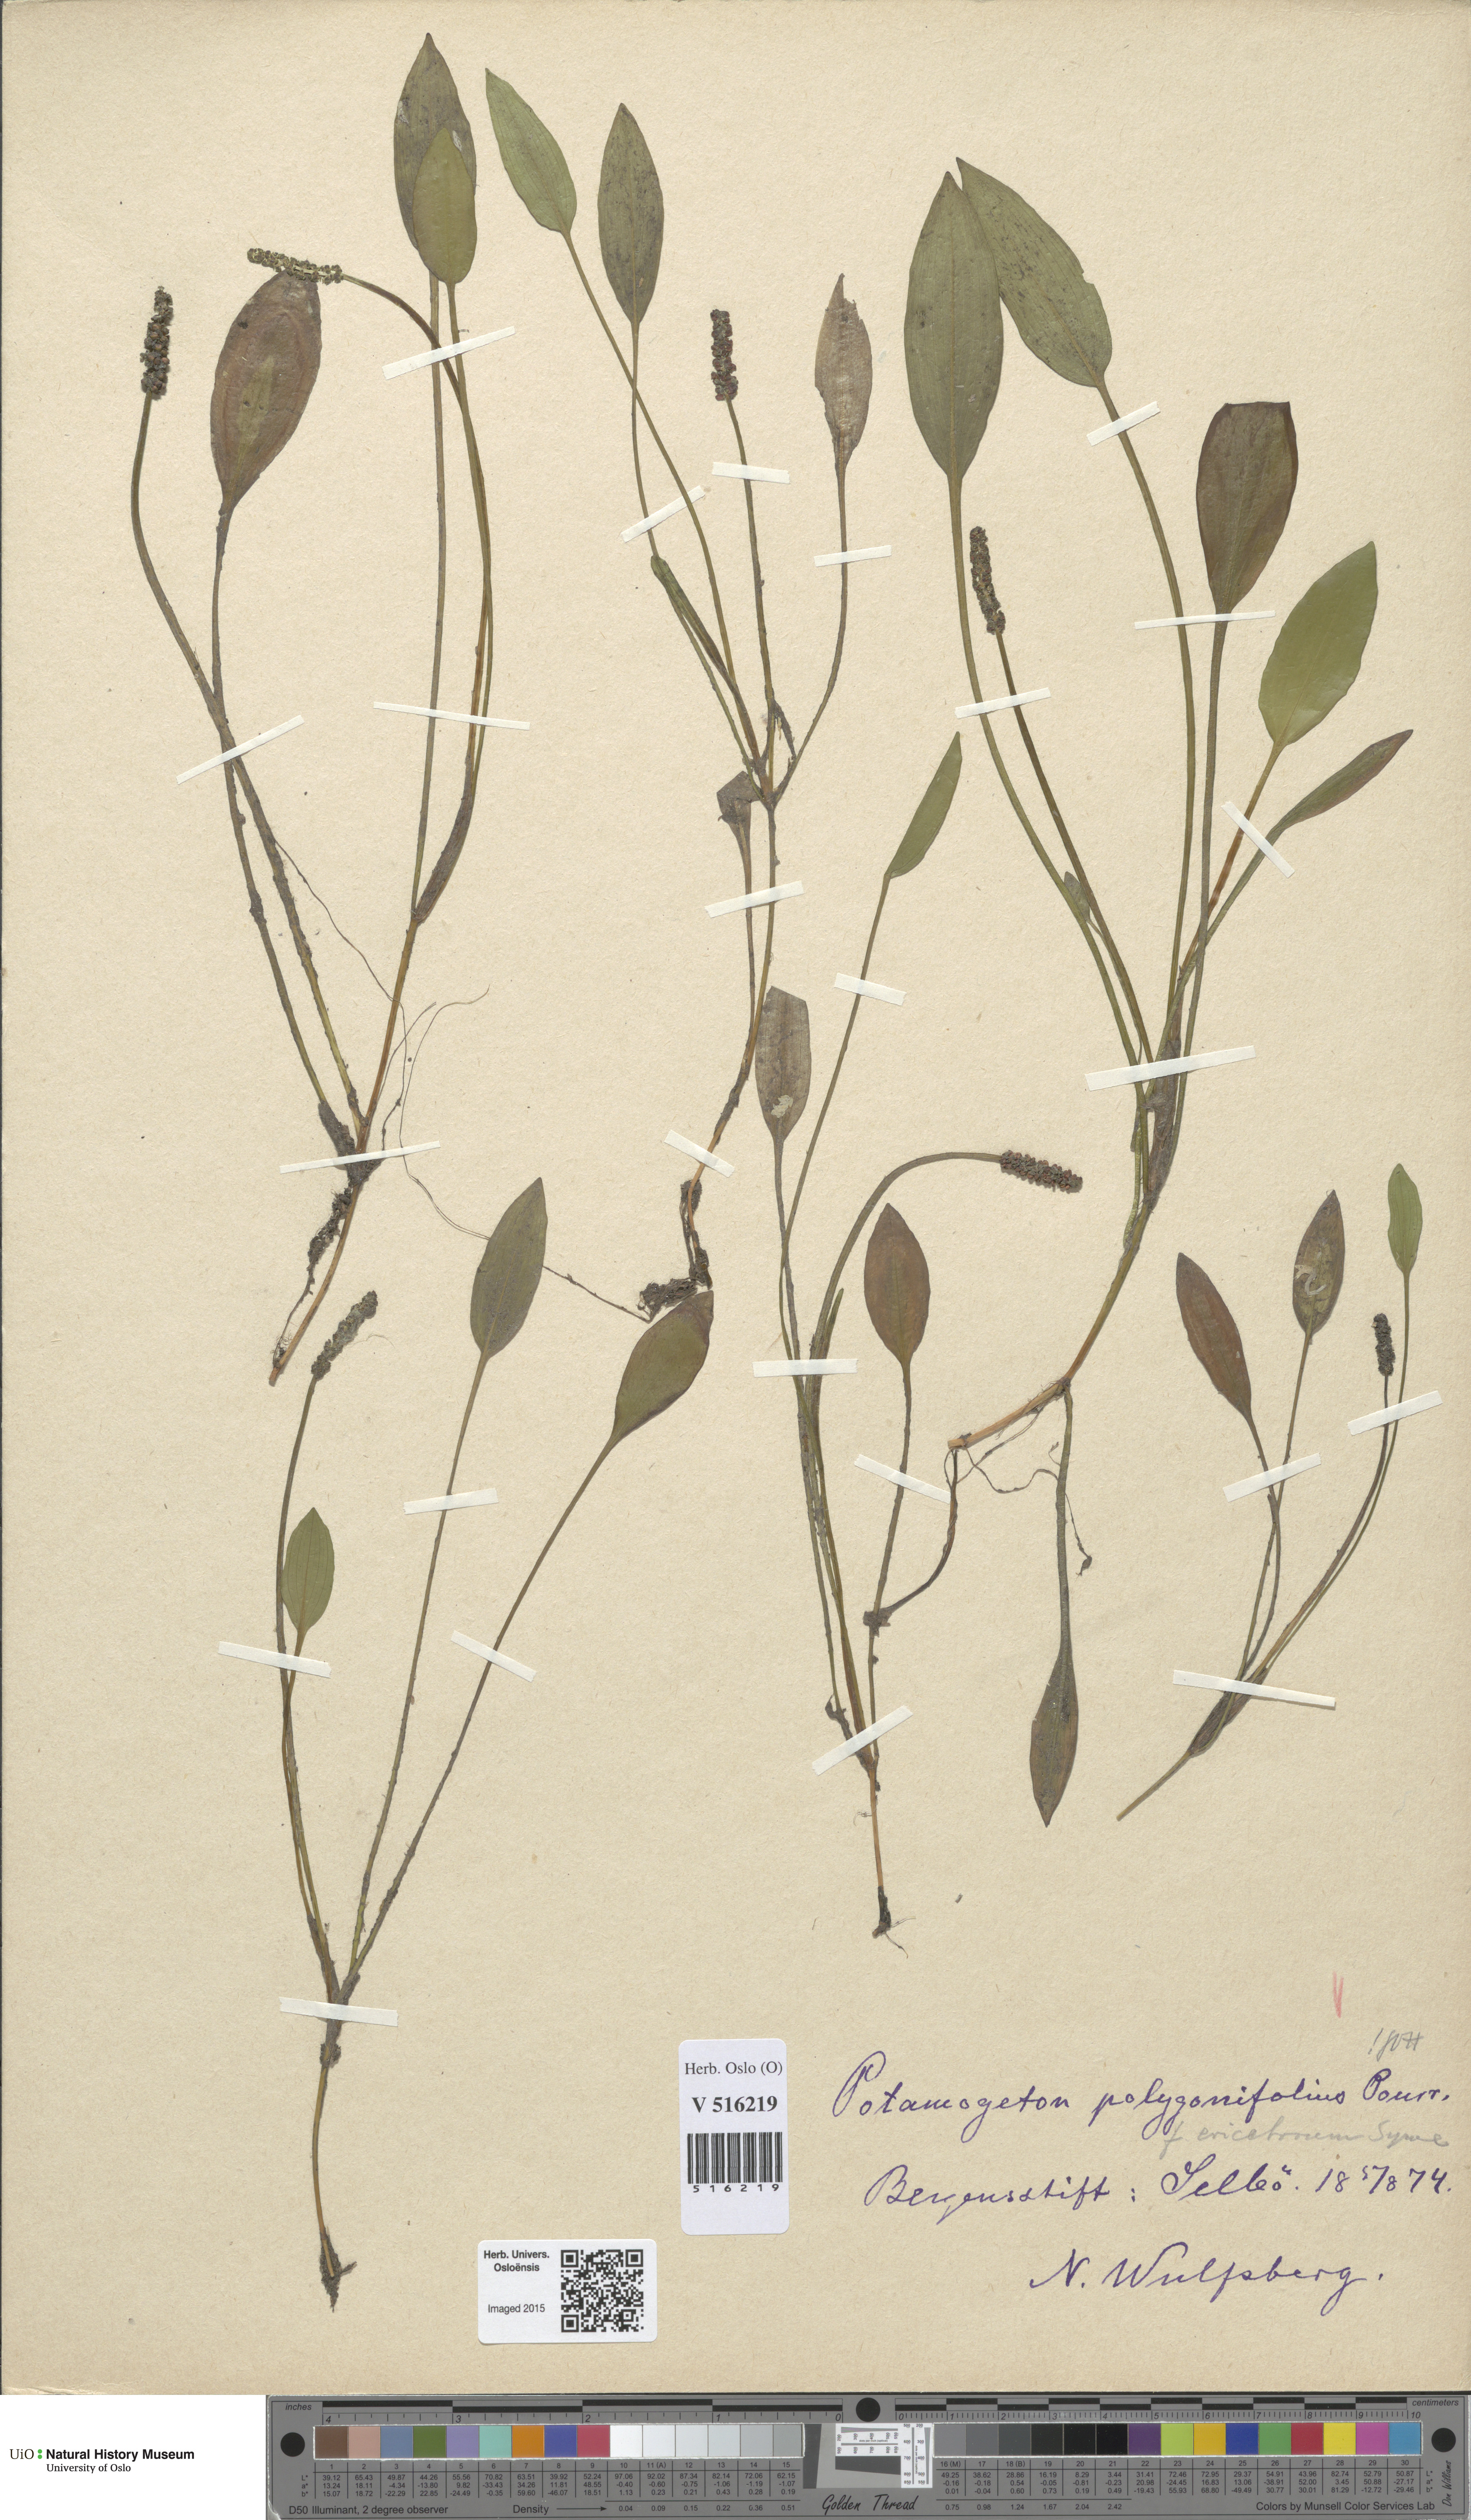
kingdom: Plantae
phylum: Tracheophyta
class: Liliopsida
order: Alismatales
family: Potamogetonaceae
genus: Potamogeton
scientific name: Potamogeton polygonifolius
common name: Bog pondweed
